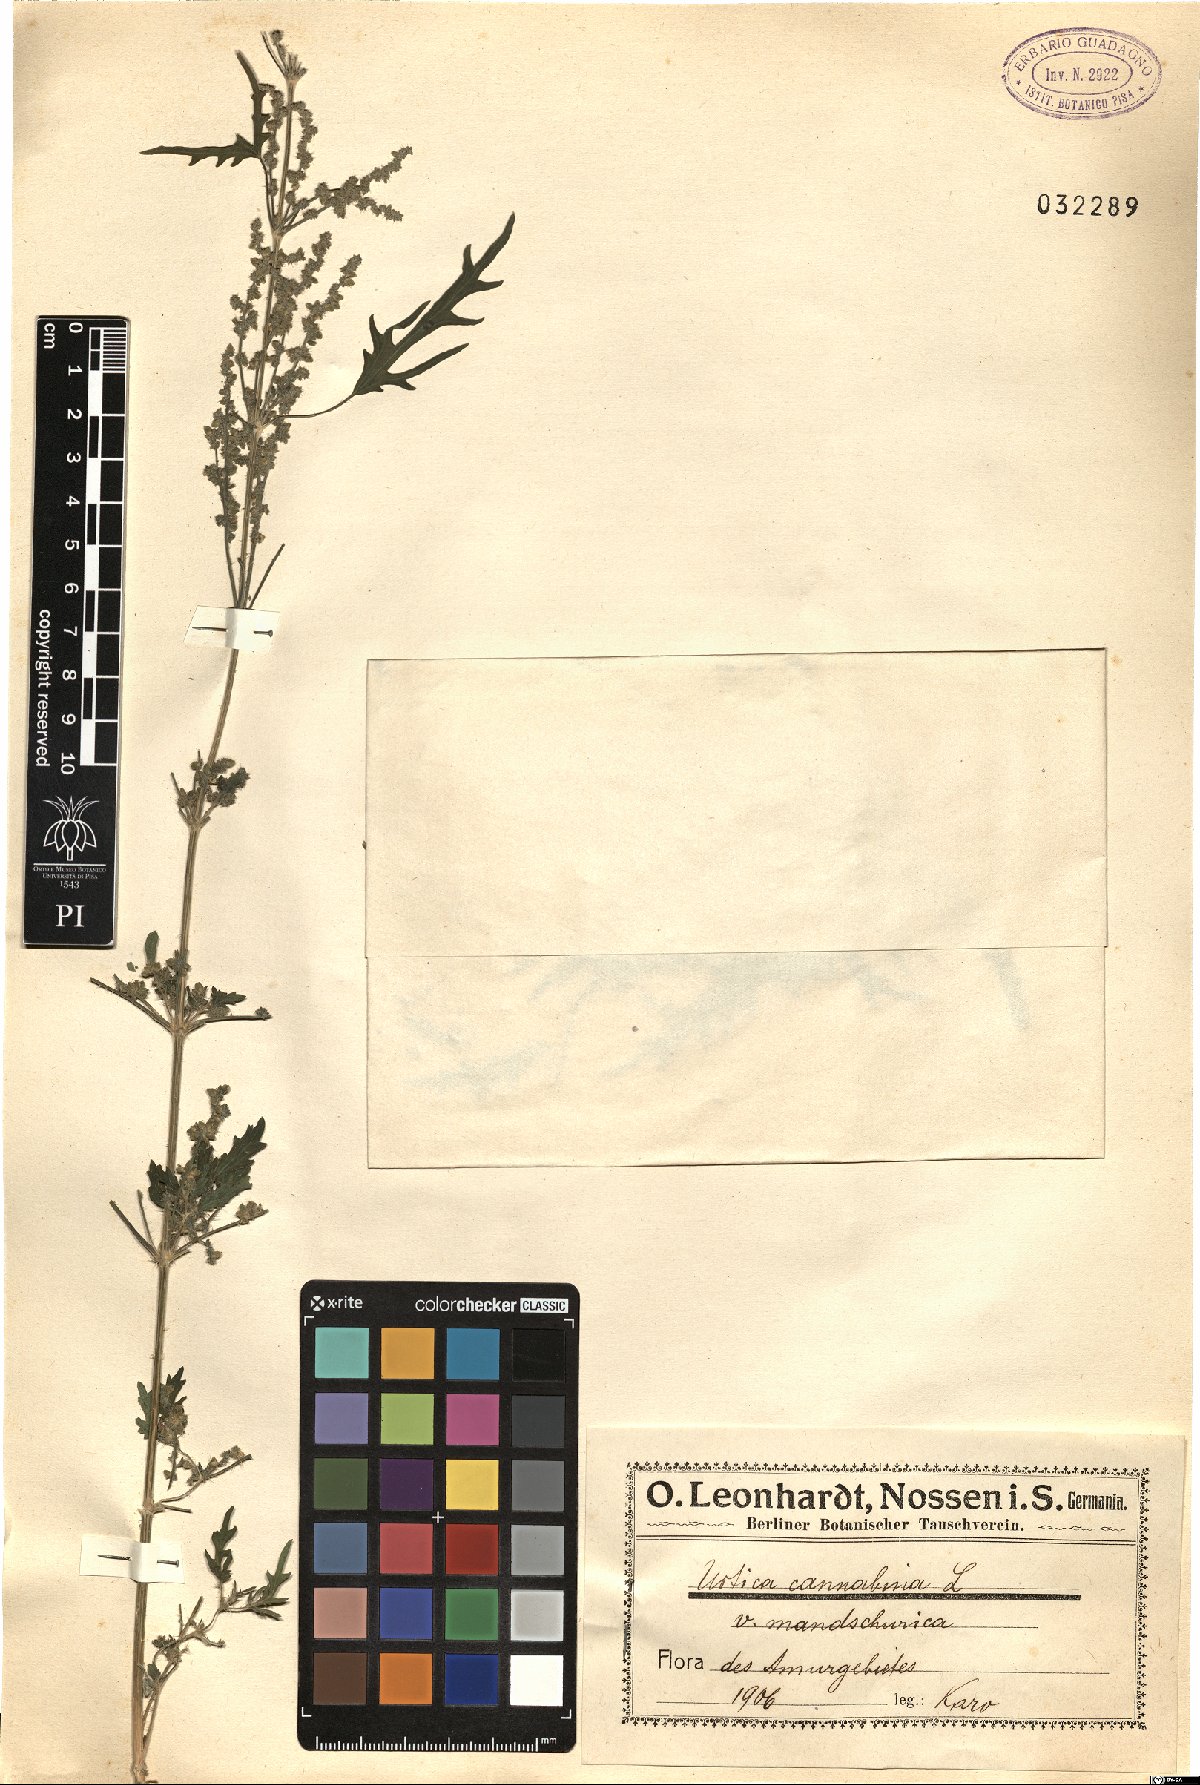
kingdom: Plantae
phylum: Tracheophyta
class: Magnoliopsida
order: Rosales
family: Urticaceae
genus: Urtica
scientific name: Urtica cannabina
